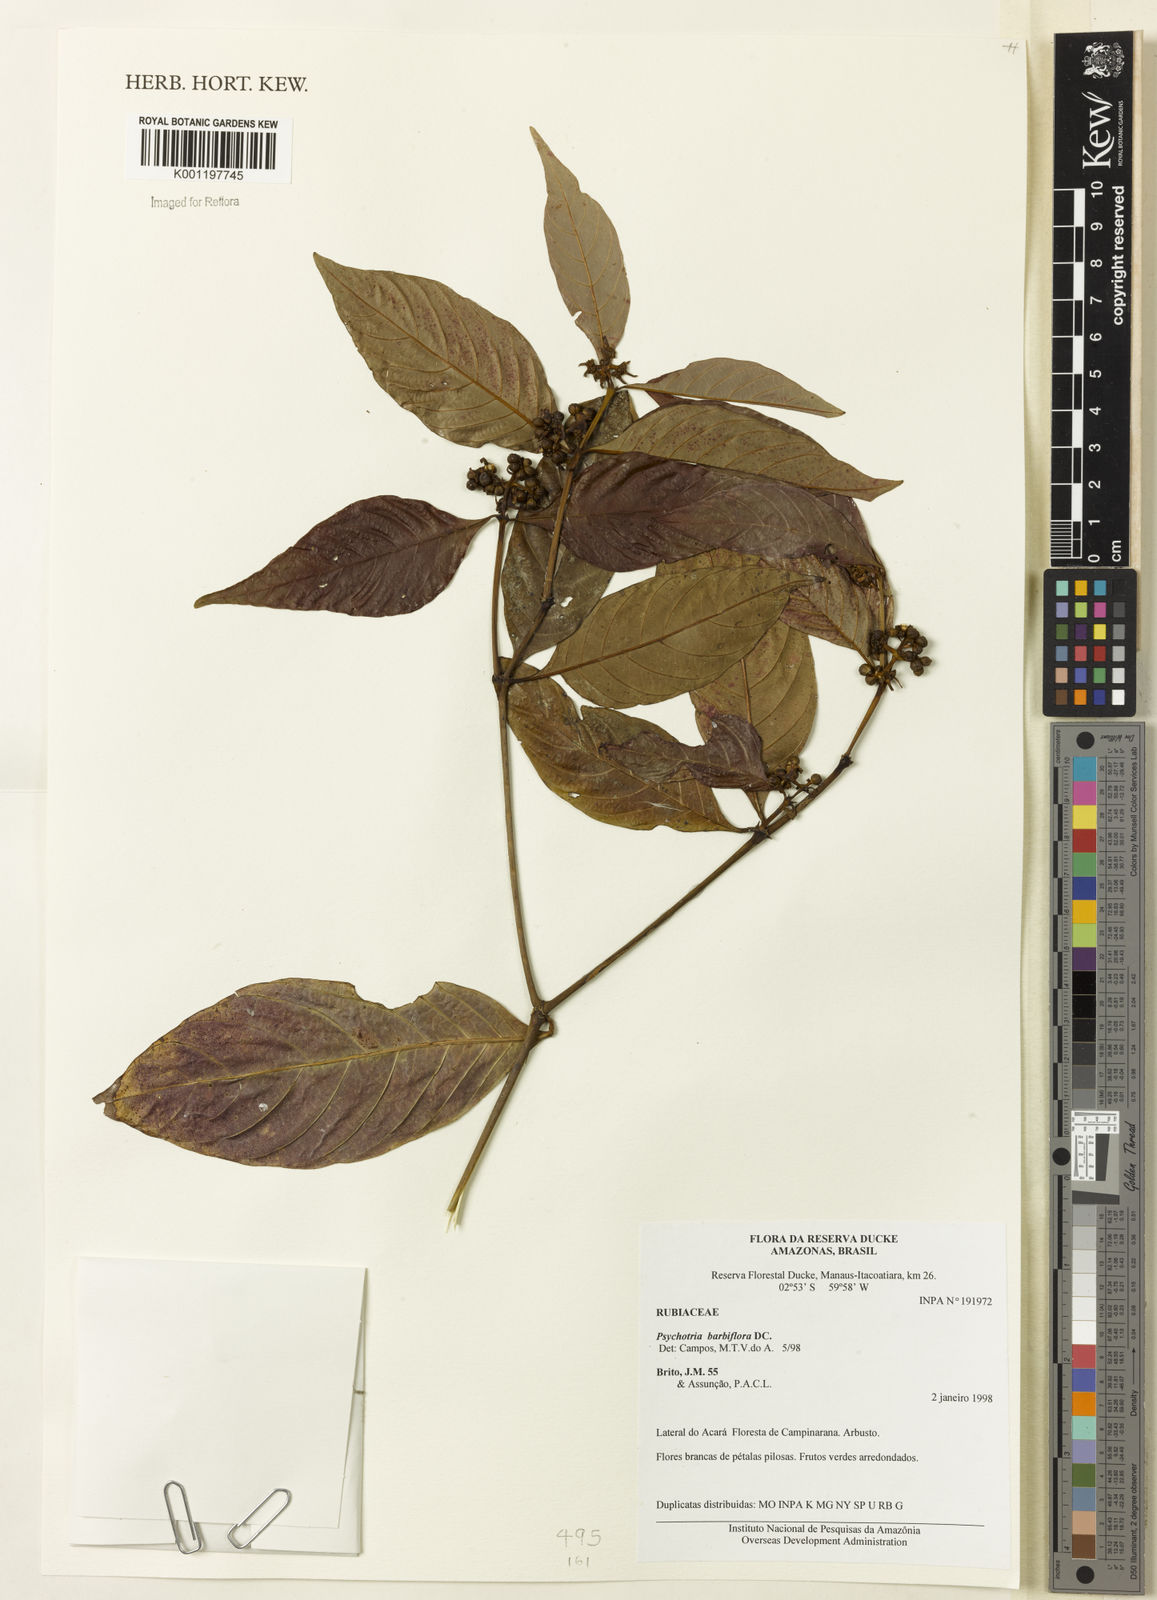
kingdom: Plantae
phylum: Tracheophyta
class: Magnoliopsida
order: Gentianales
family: Rubiaceae
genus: Palicourea
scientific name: Palicourea hoffmannseggiana
